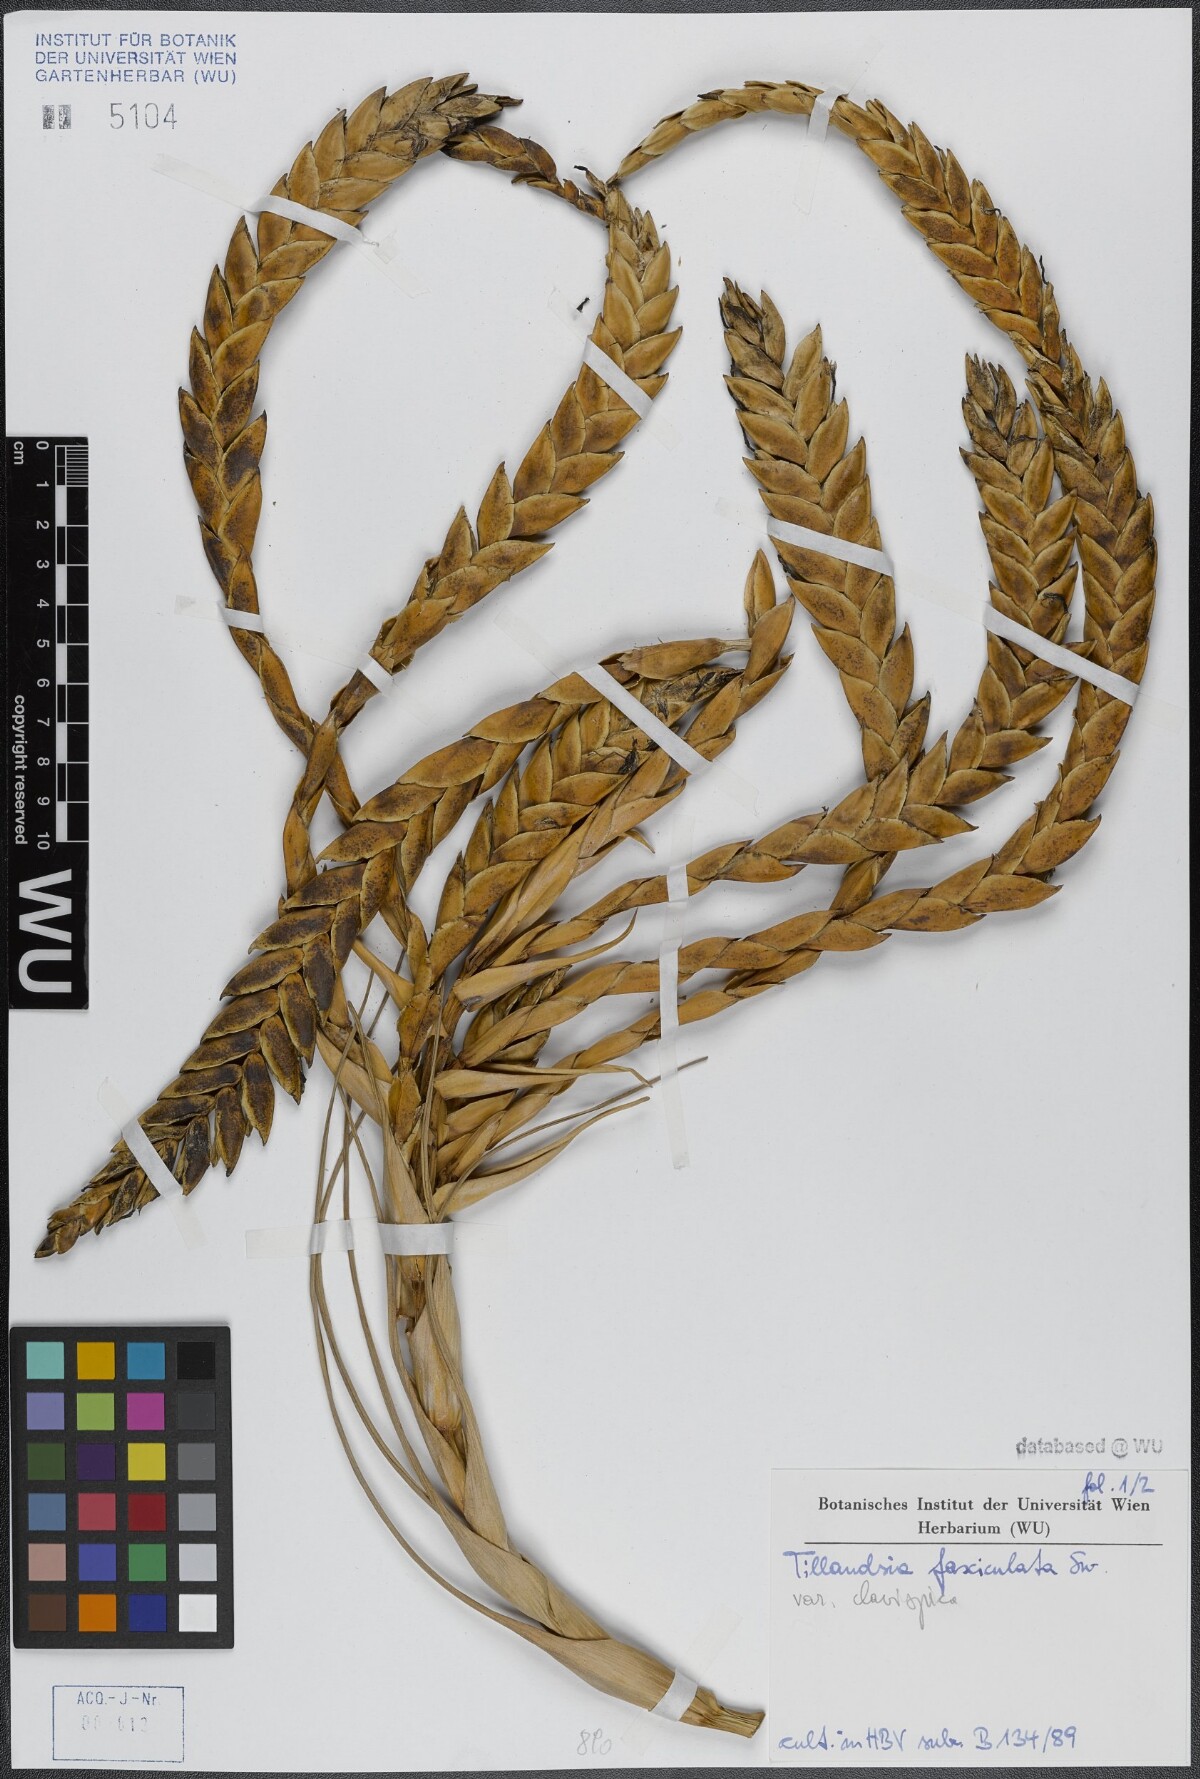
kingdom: Plantae
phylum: Tracheophyta
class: Liliopsida
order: Poales
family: Bromeliaceae
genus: Tillandsia
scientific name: Tillandsia fasciculata
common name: Giant airplant
